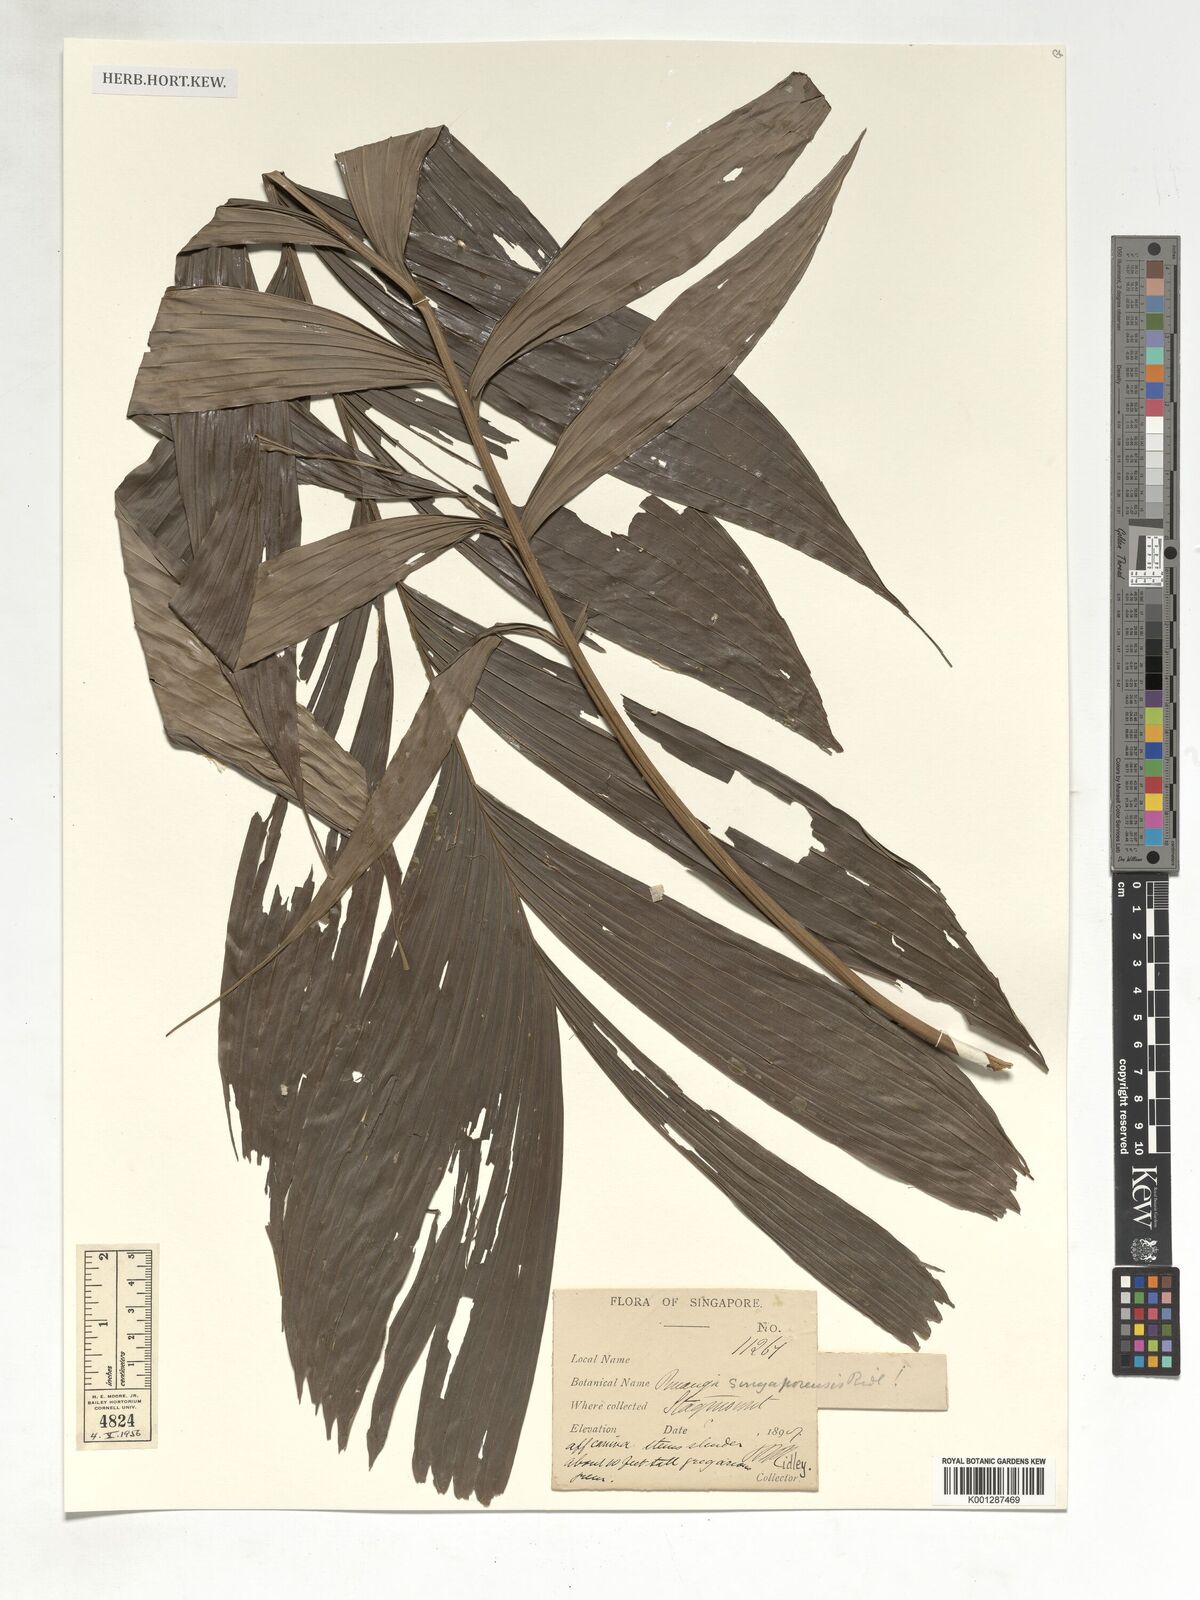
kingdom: Plantae
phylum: Tracheophyta
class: Liliopsida
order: Arecales
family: Arecaceae
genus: Pinanga
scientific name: Pinanga singaporensis
